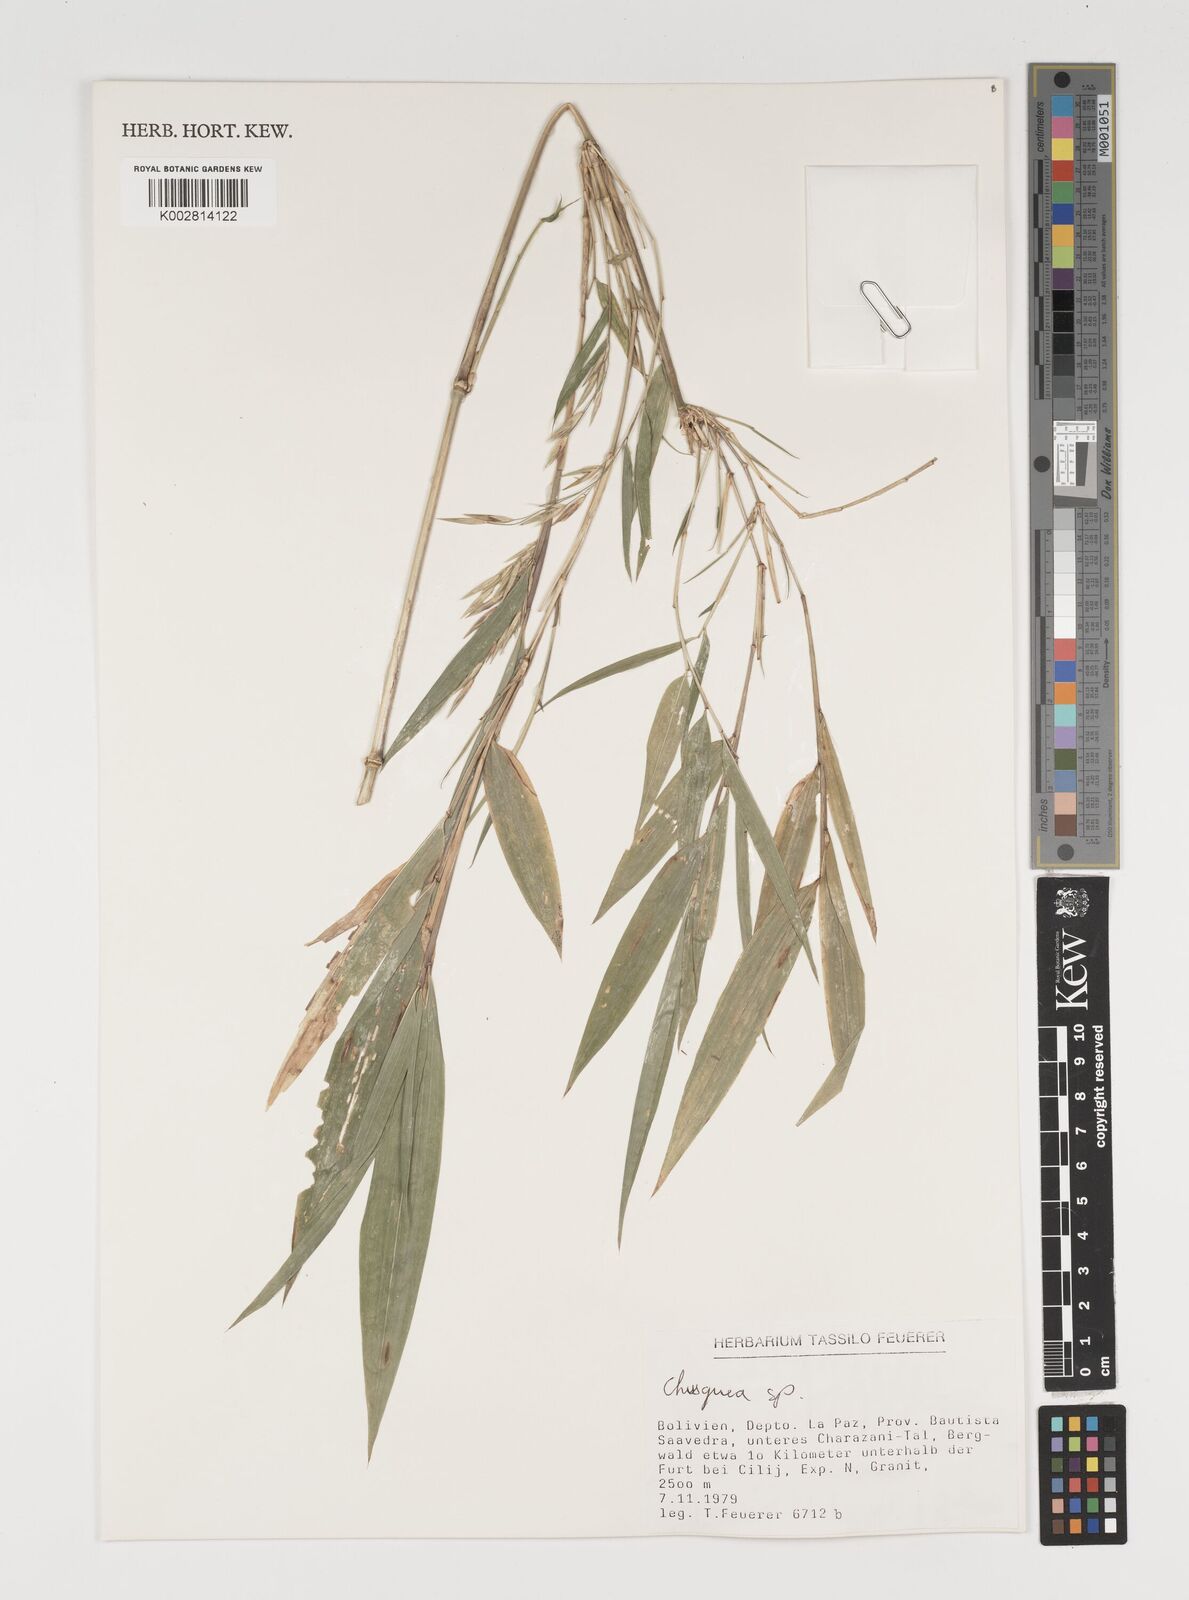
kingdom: Plantae
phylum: Tracheophyta
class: Liliopsida
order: Poales
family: Poaceae
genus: Chusquea
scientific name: Chusquea
